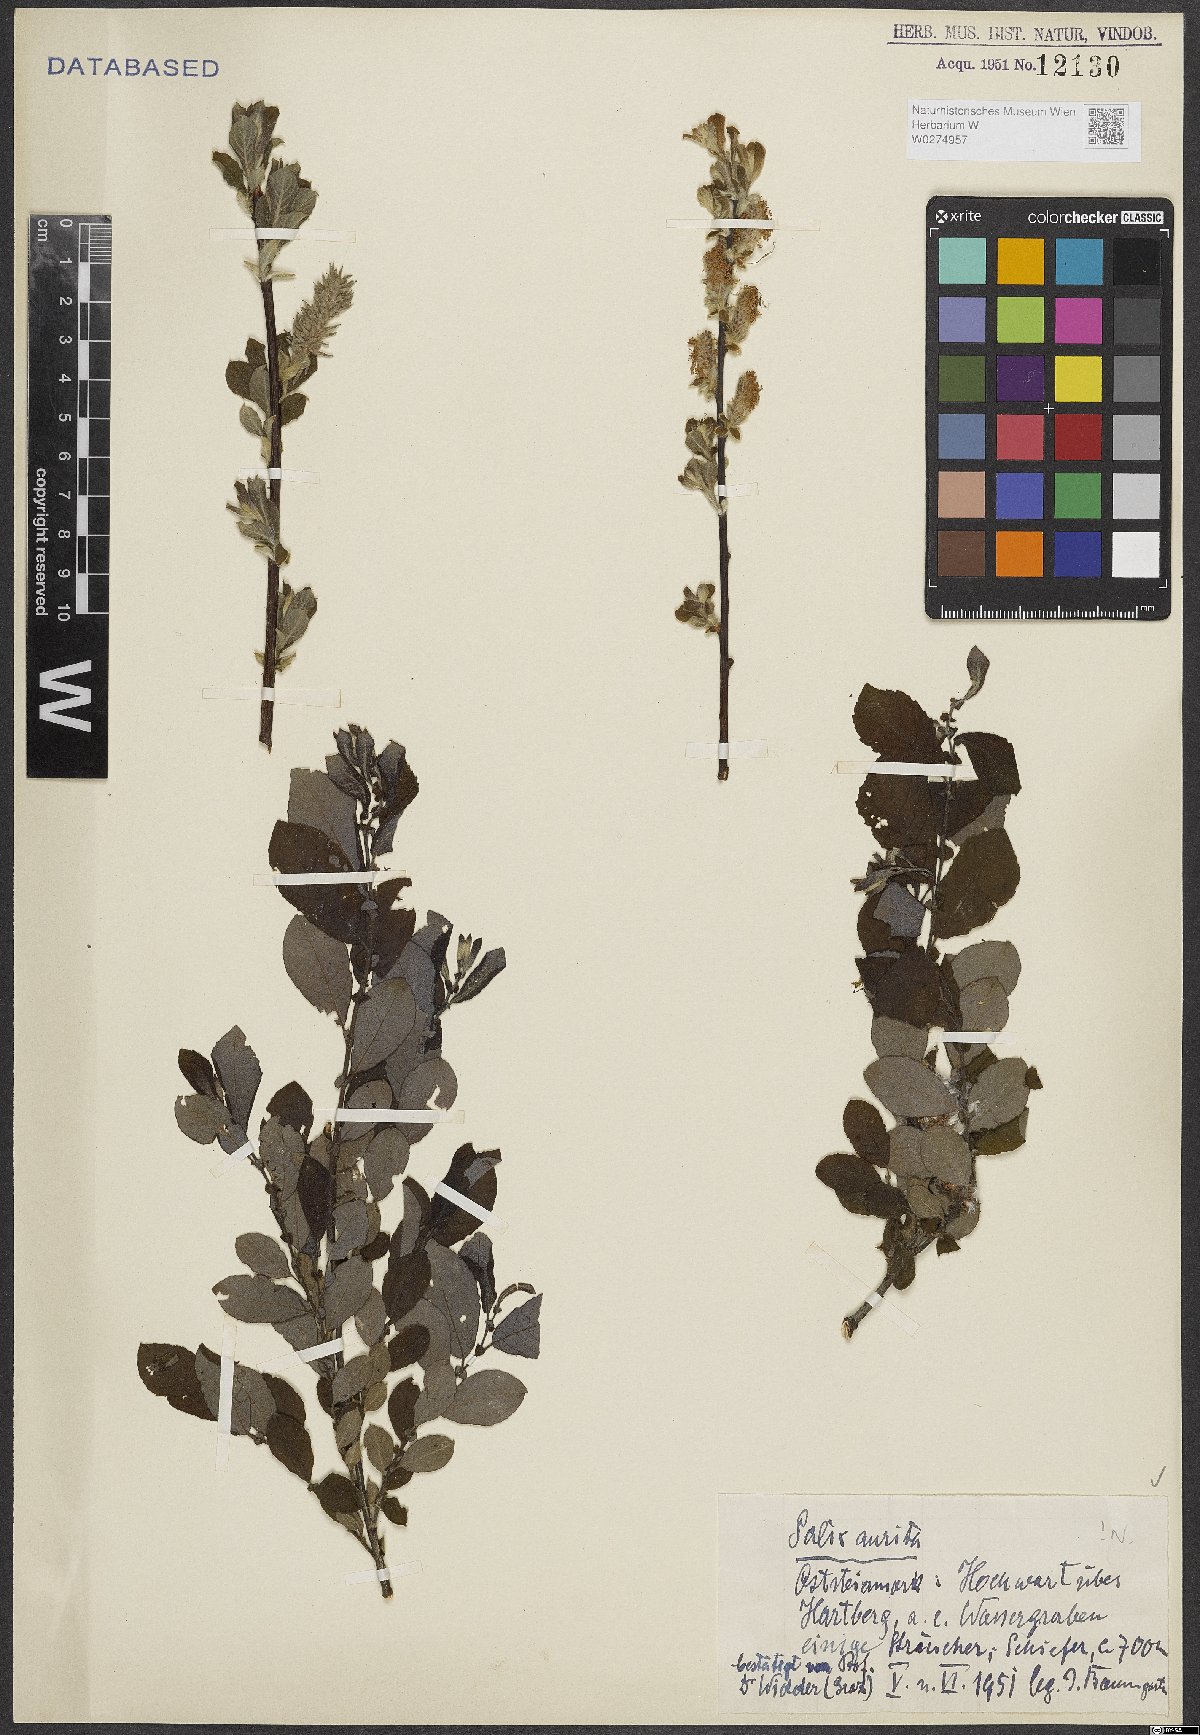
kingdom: Plantae
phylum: Tracheophyta
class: Magnoliopsida
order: Malpighiales
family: Salicaceae
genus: Salix
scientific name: Salix aurita
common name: Eared willow
